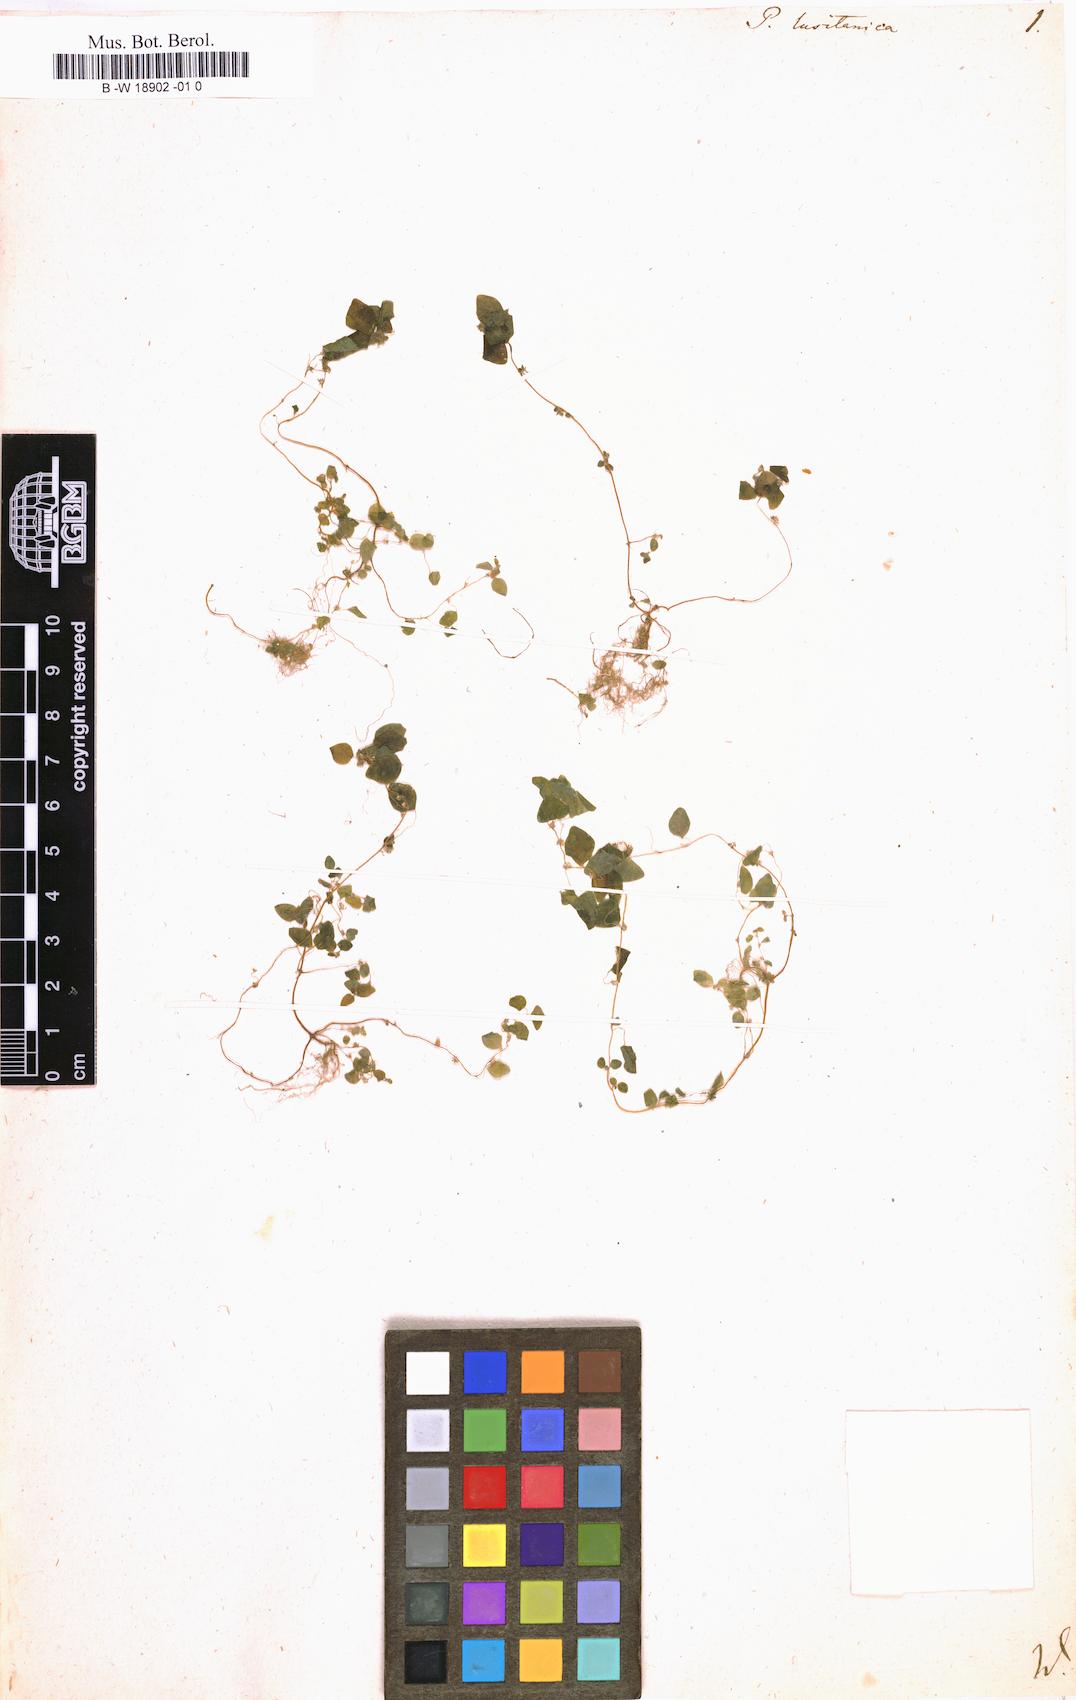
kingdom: Plantae
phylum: Tracheophyta
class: Magnoliopsida
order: Rosales
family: Urticaceae
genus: Parietaria
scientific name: Parietaria lusitanica
